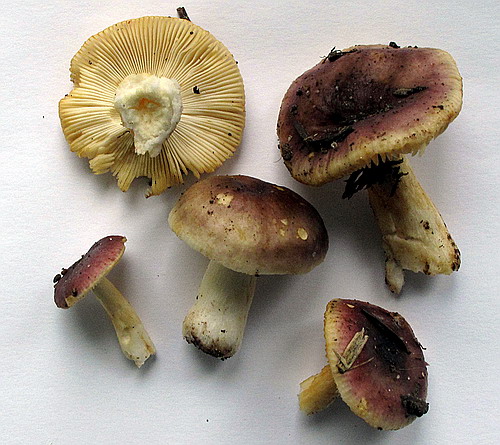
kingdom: Fungi
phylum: Basidiomycota
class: Agaricomycetes
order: Russulales
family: Russulaceae
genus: Russula
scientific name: Russula puellaris
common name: gulstokket skørhat
